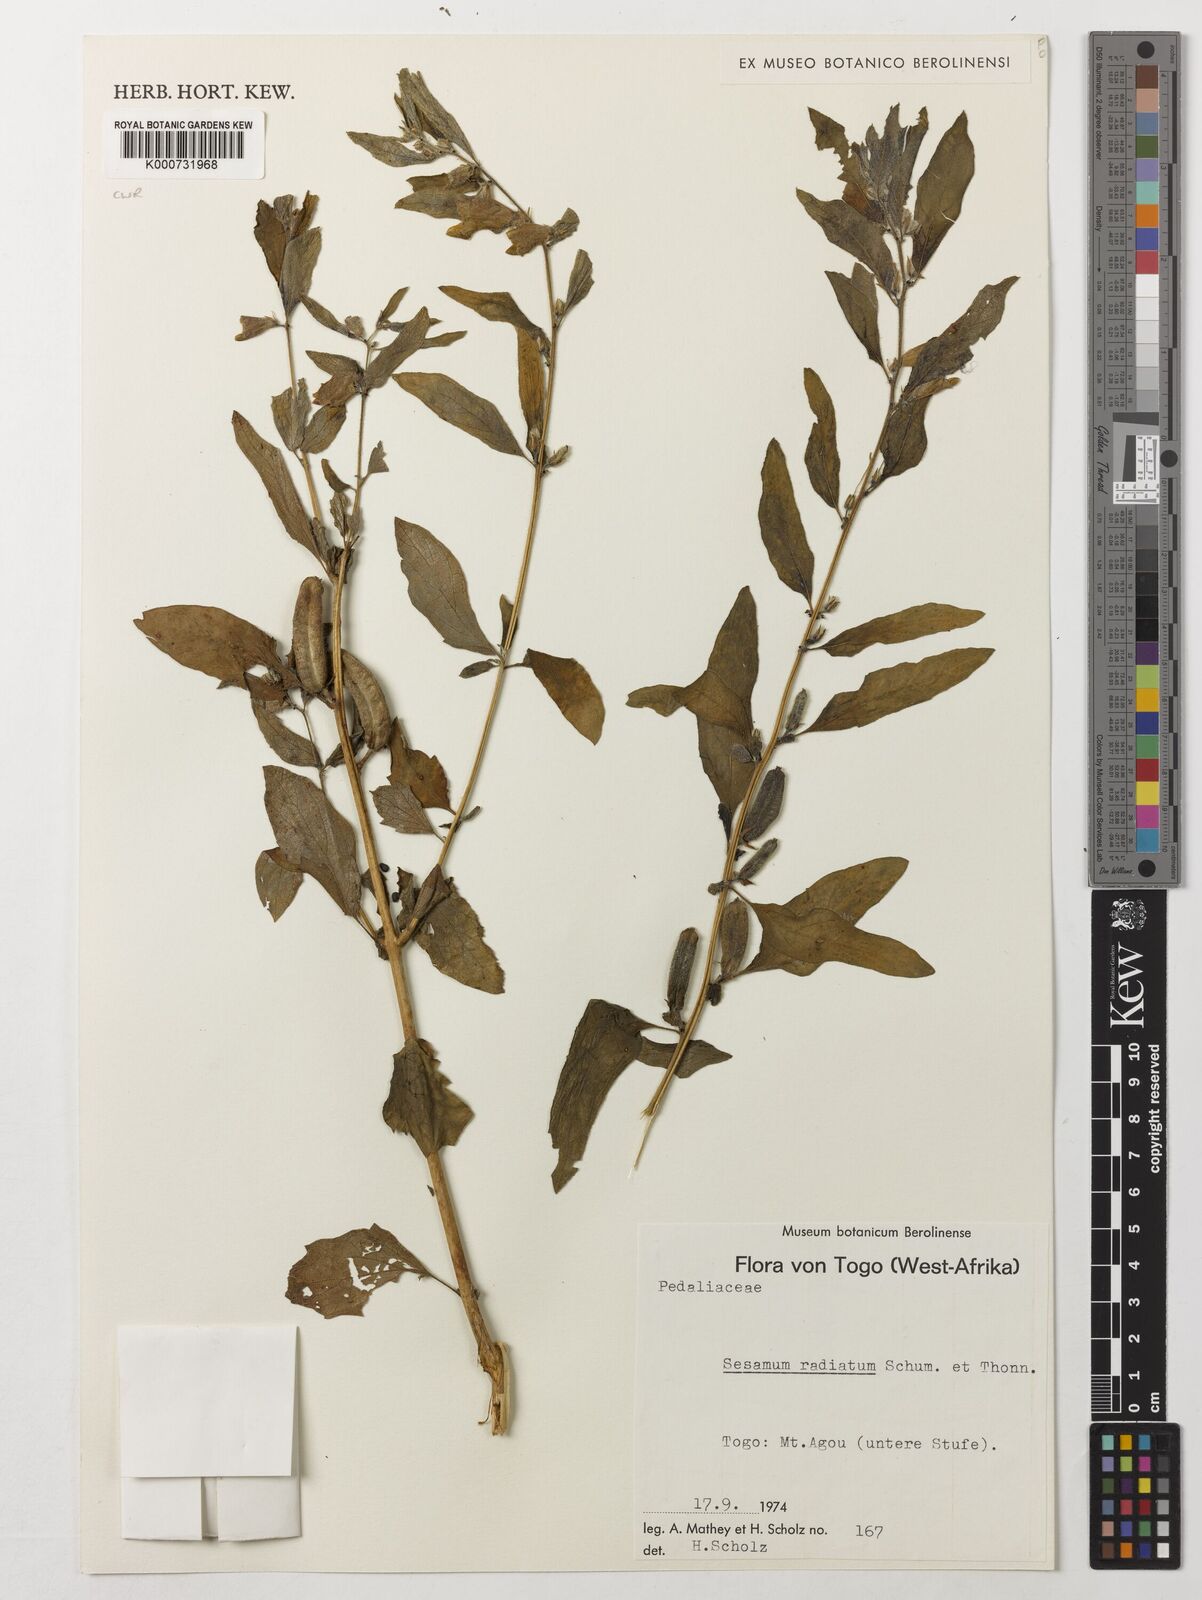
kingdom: Plantae
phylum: Tracheophyta
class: Magnoliopsida
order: Lamiales
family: Pedaliaceae
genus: Sesamum
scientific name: Sesamum
